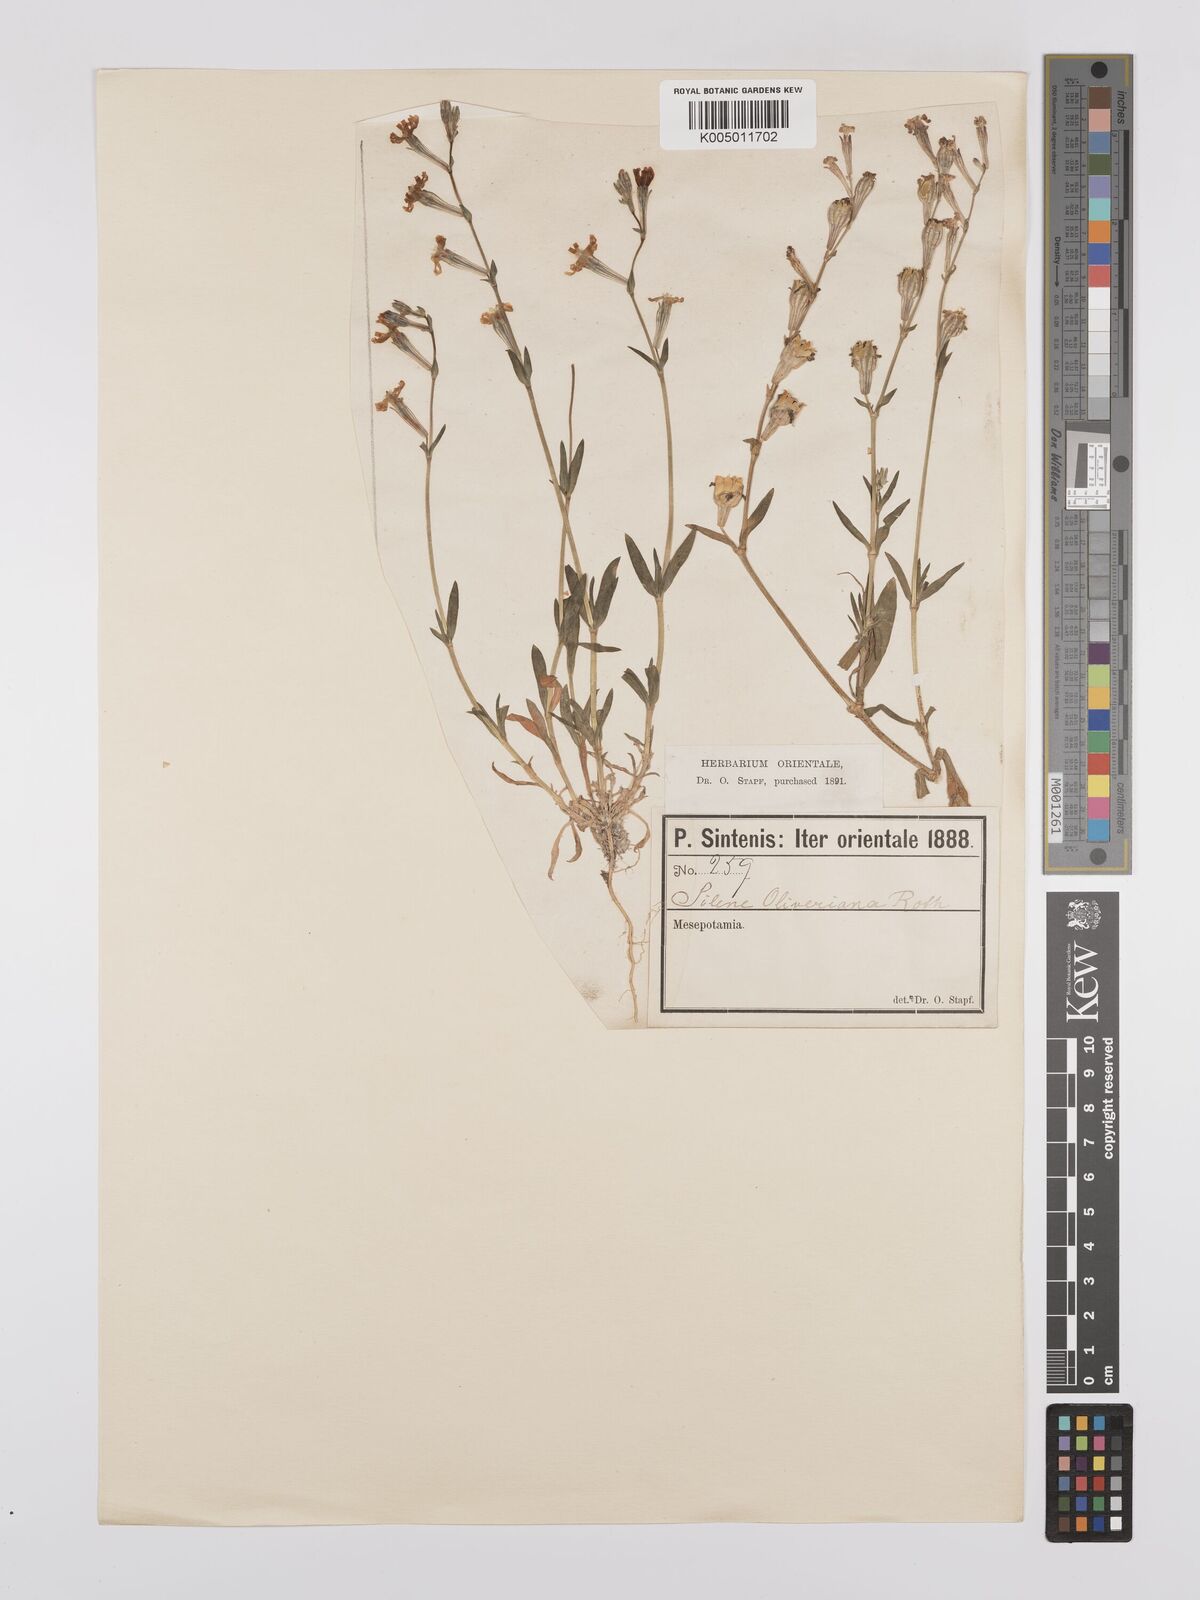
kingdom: Plantae
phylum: Tracheophyta
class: Magnoliopsida
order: Caryophyllales
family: Caryophyllaceae
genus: Silene
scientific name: Silene
